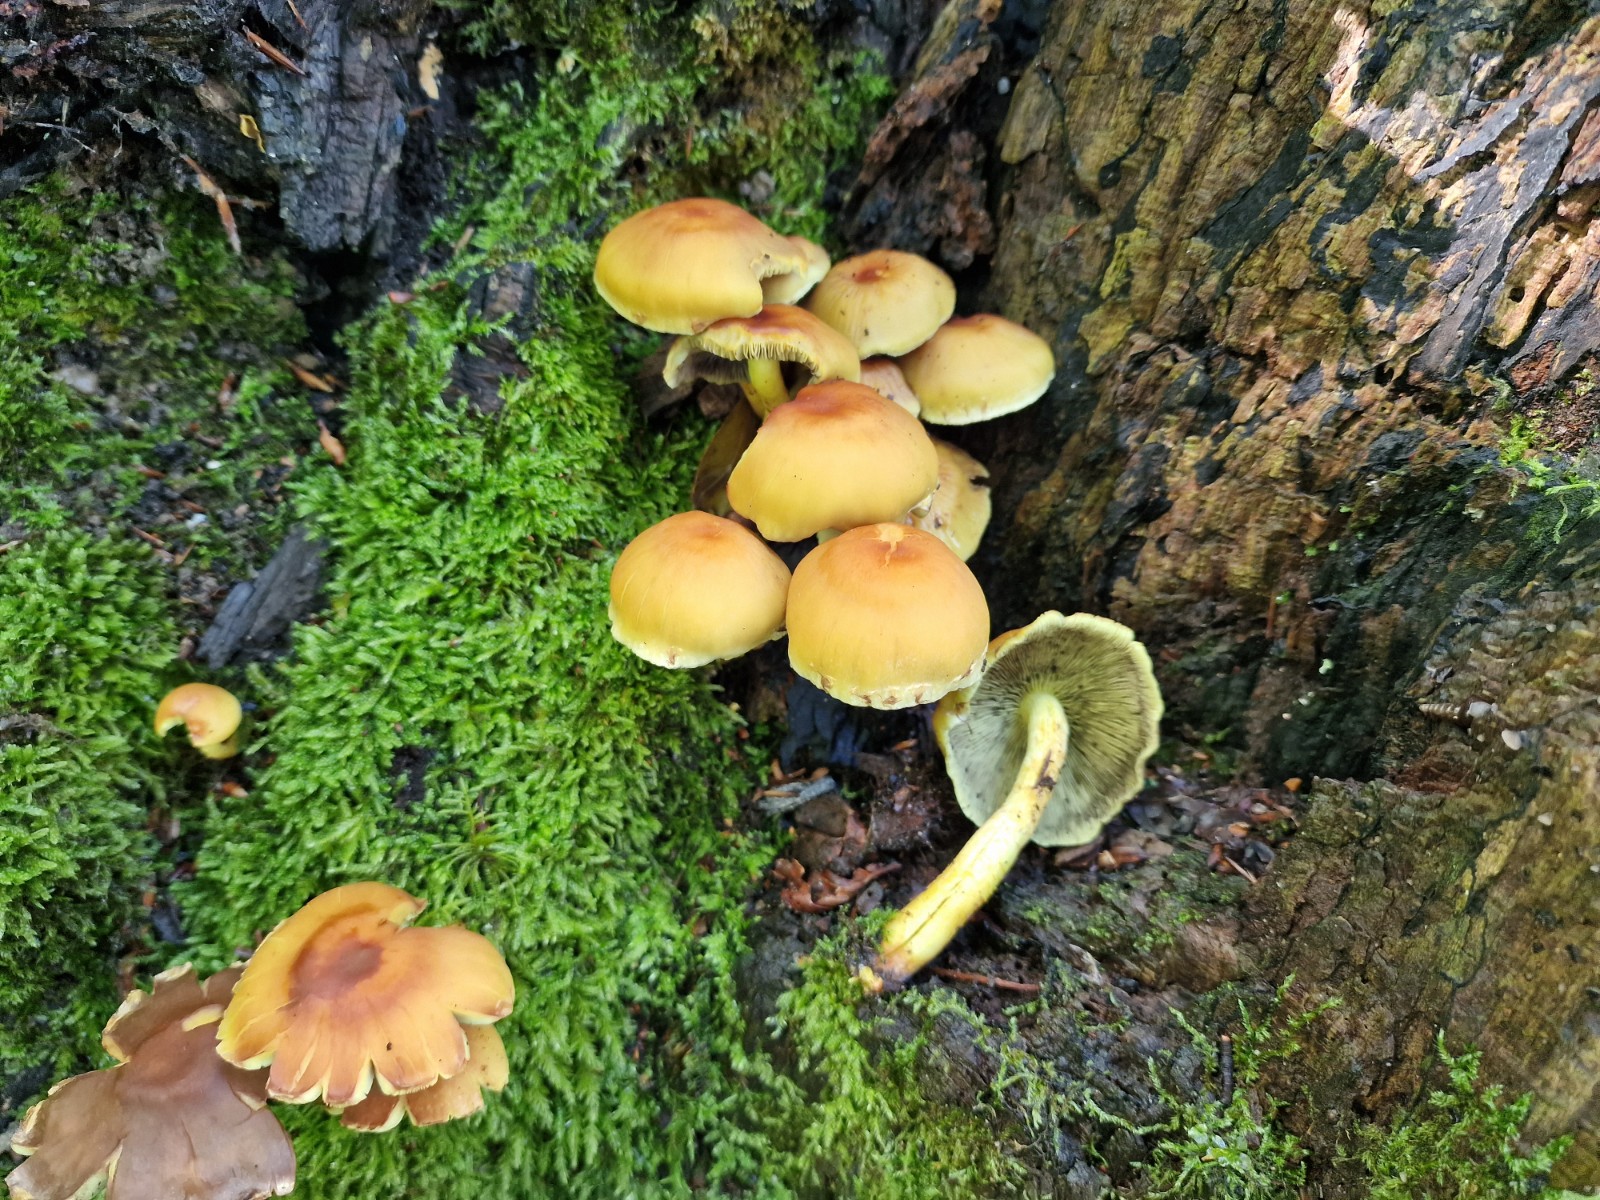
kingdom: Fungi
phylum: Basidiomycota
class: Agaricomycetes
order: Agaricales
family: Strophariaceae
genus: Hypholoma
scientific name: Hypholoma fasciculare
